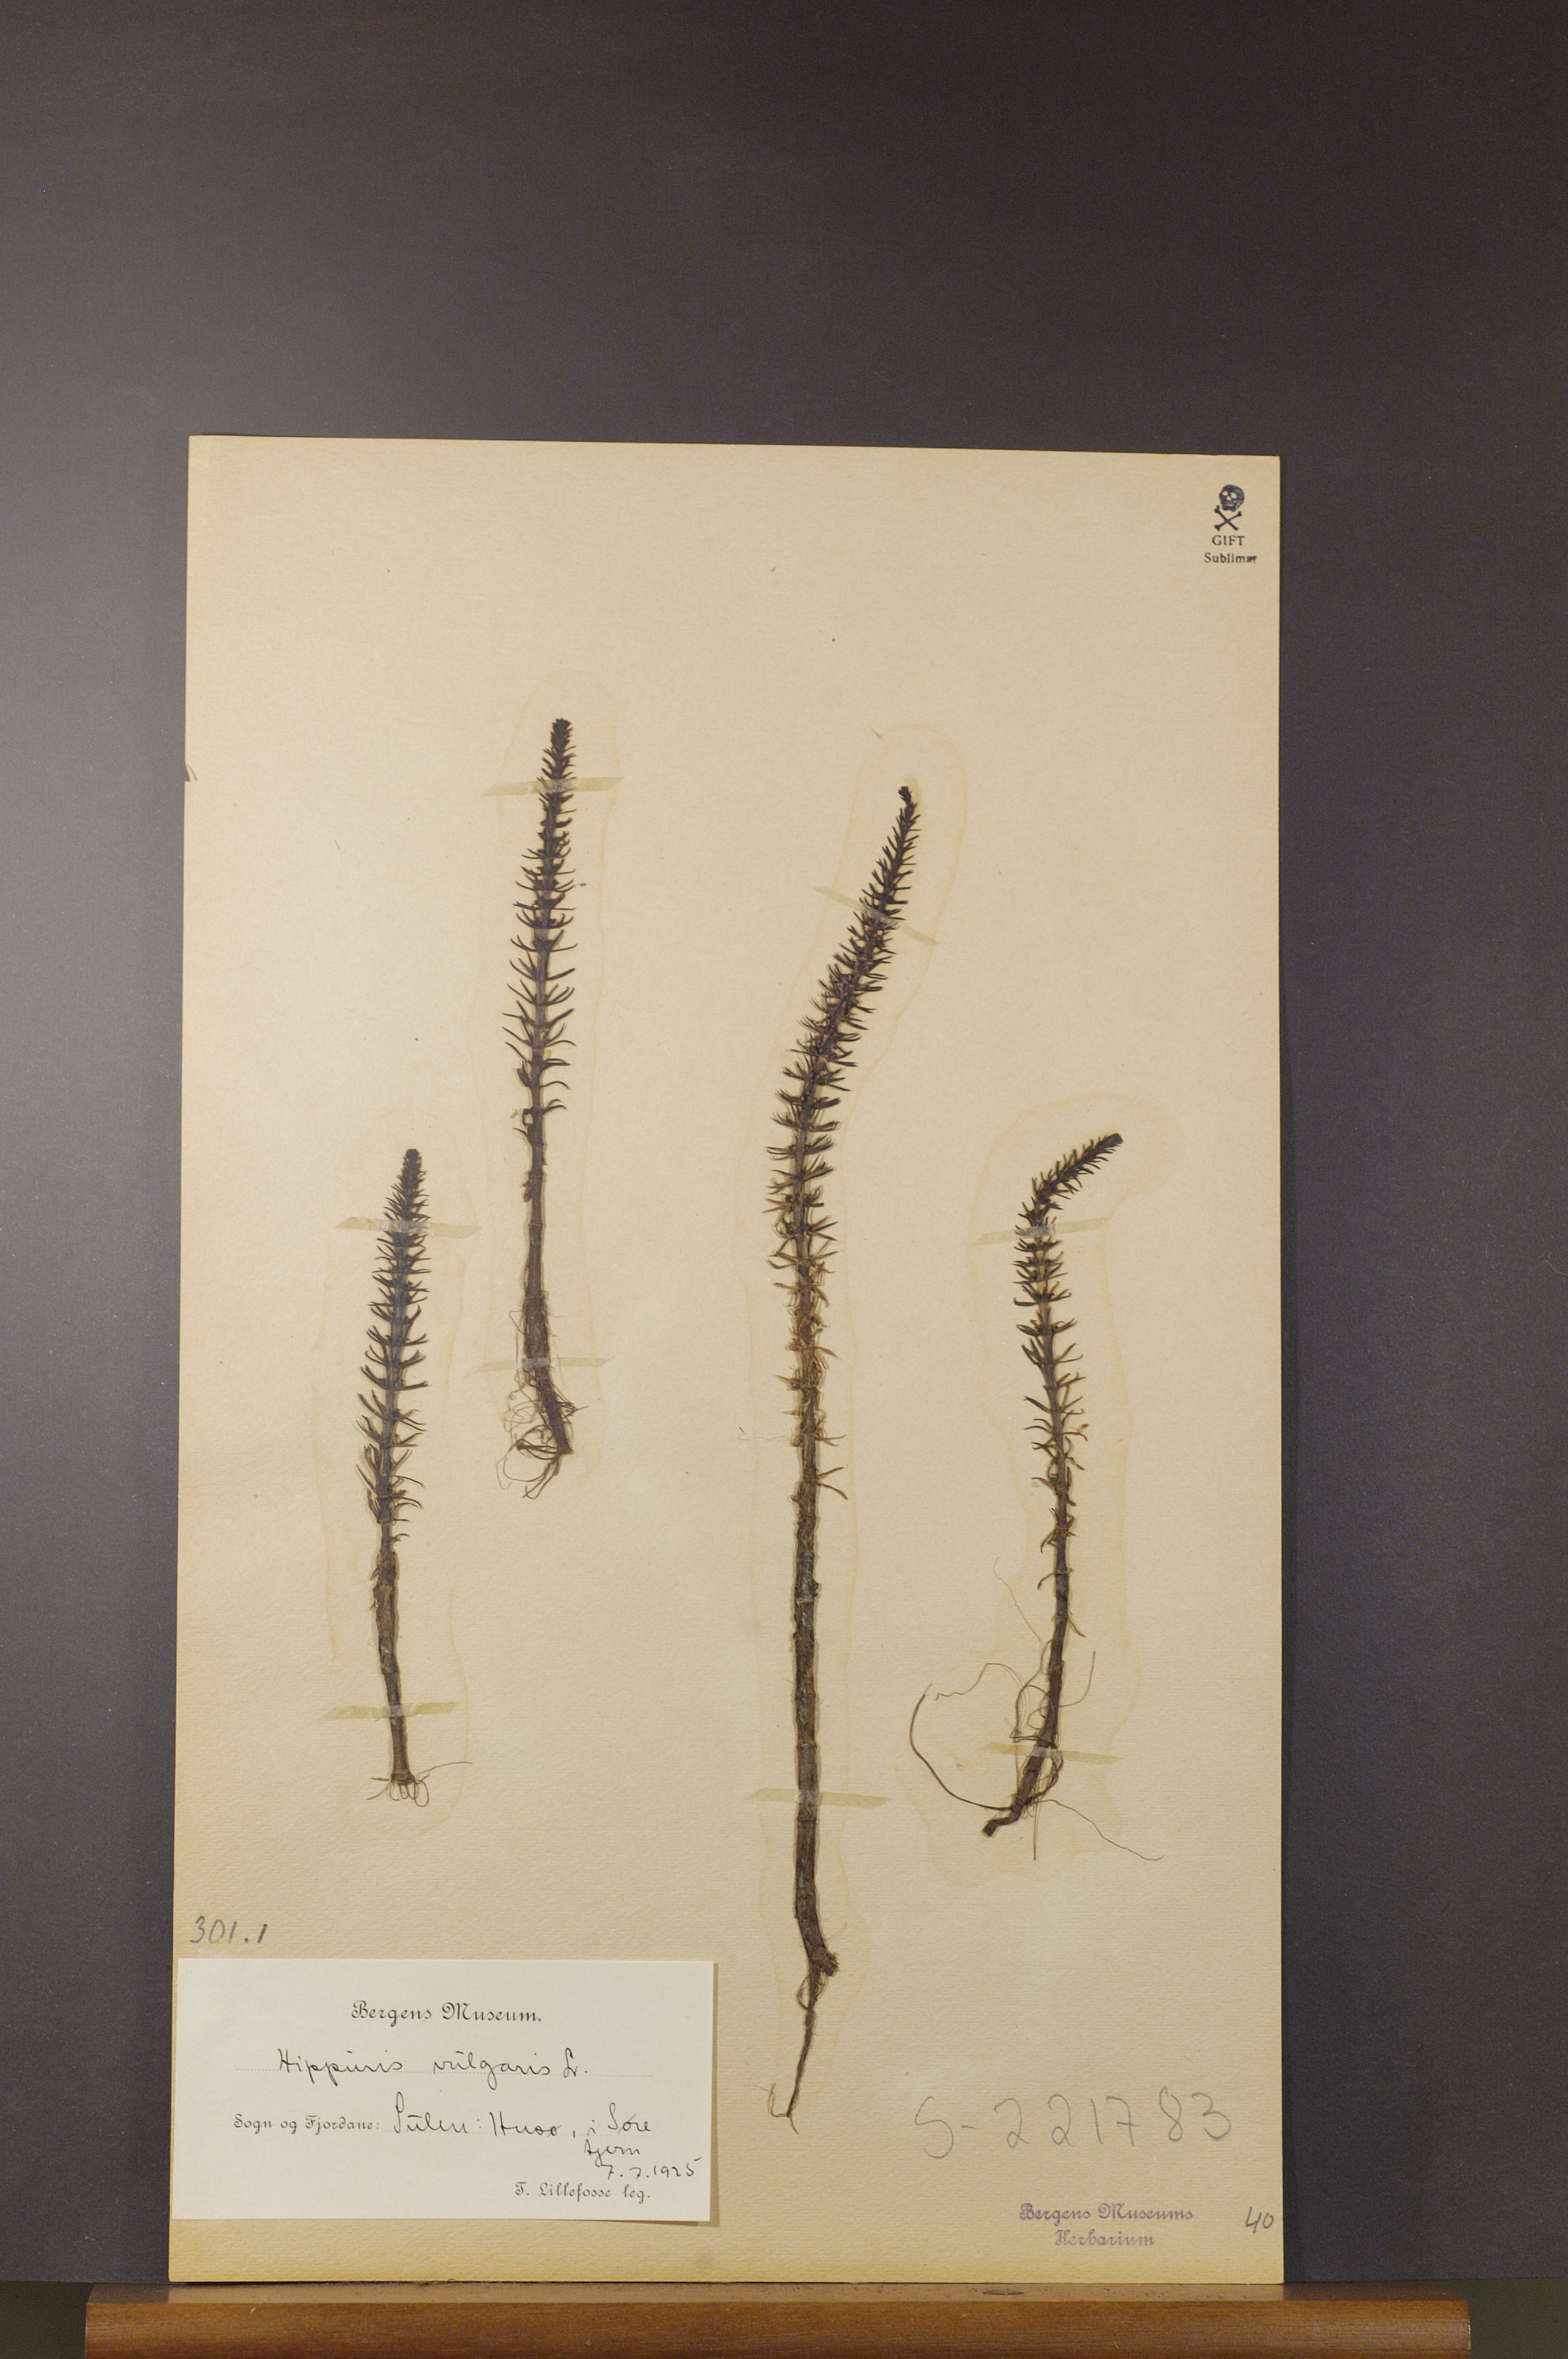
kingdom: Plantae
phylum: Tracheophyta
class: Magnoliopsida
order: Lamiales
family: Plantaginaceae
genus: Hippuris
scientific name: Hippuris vulgaris
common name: Mare's-tail
